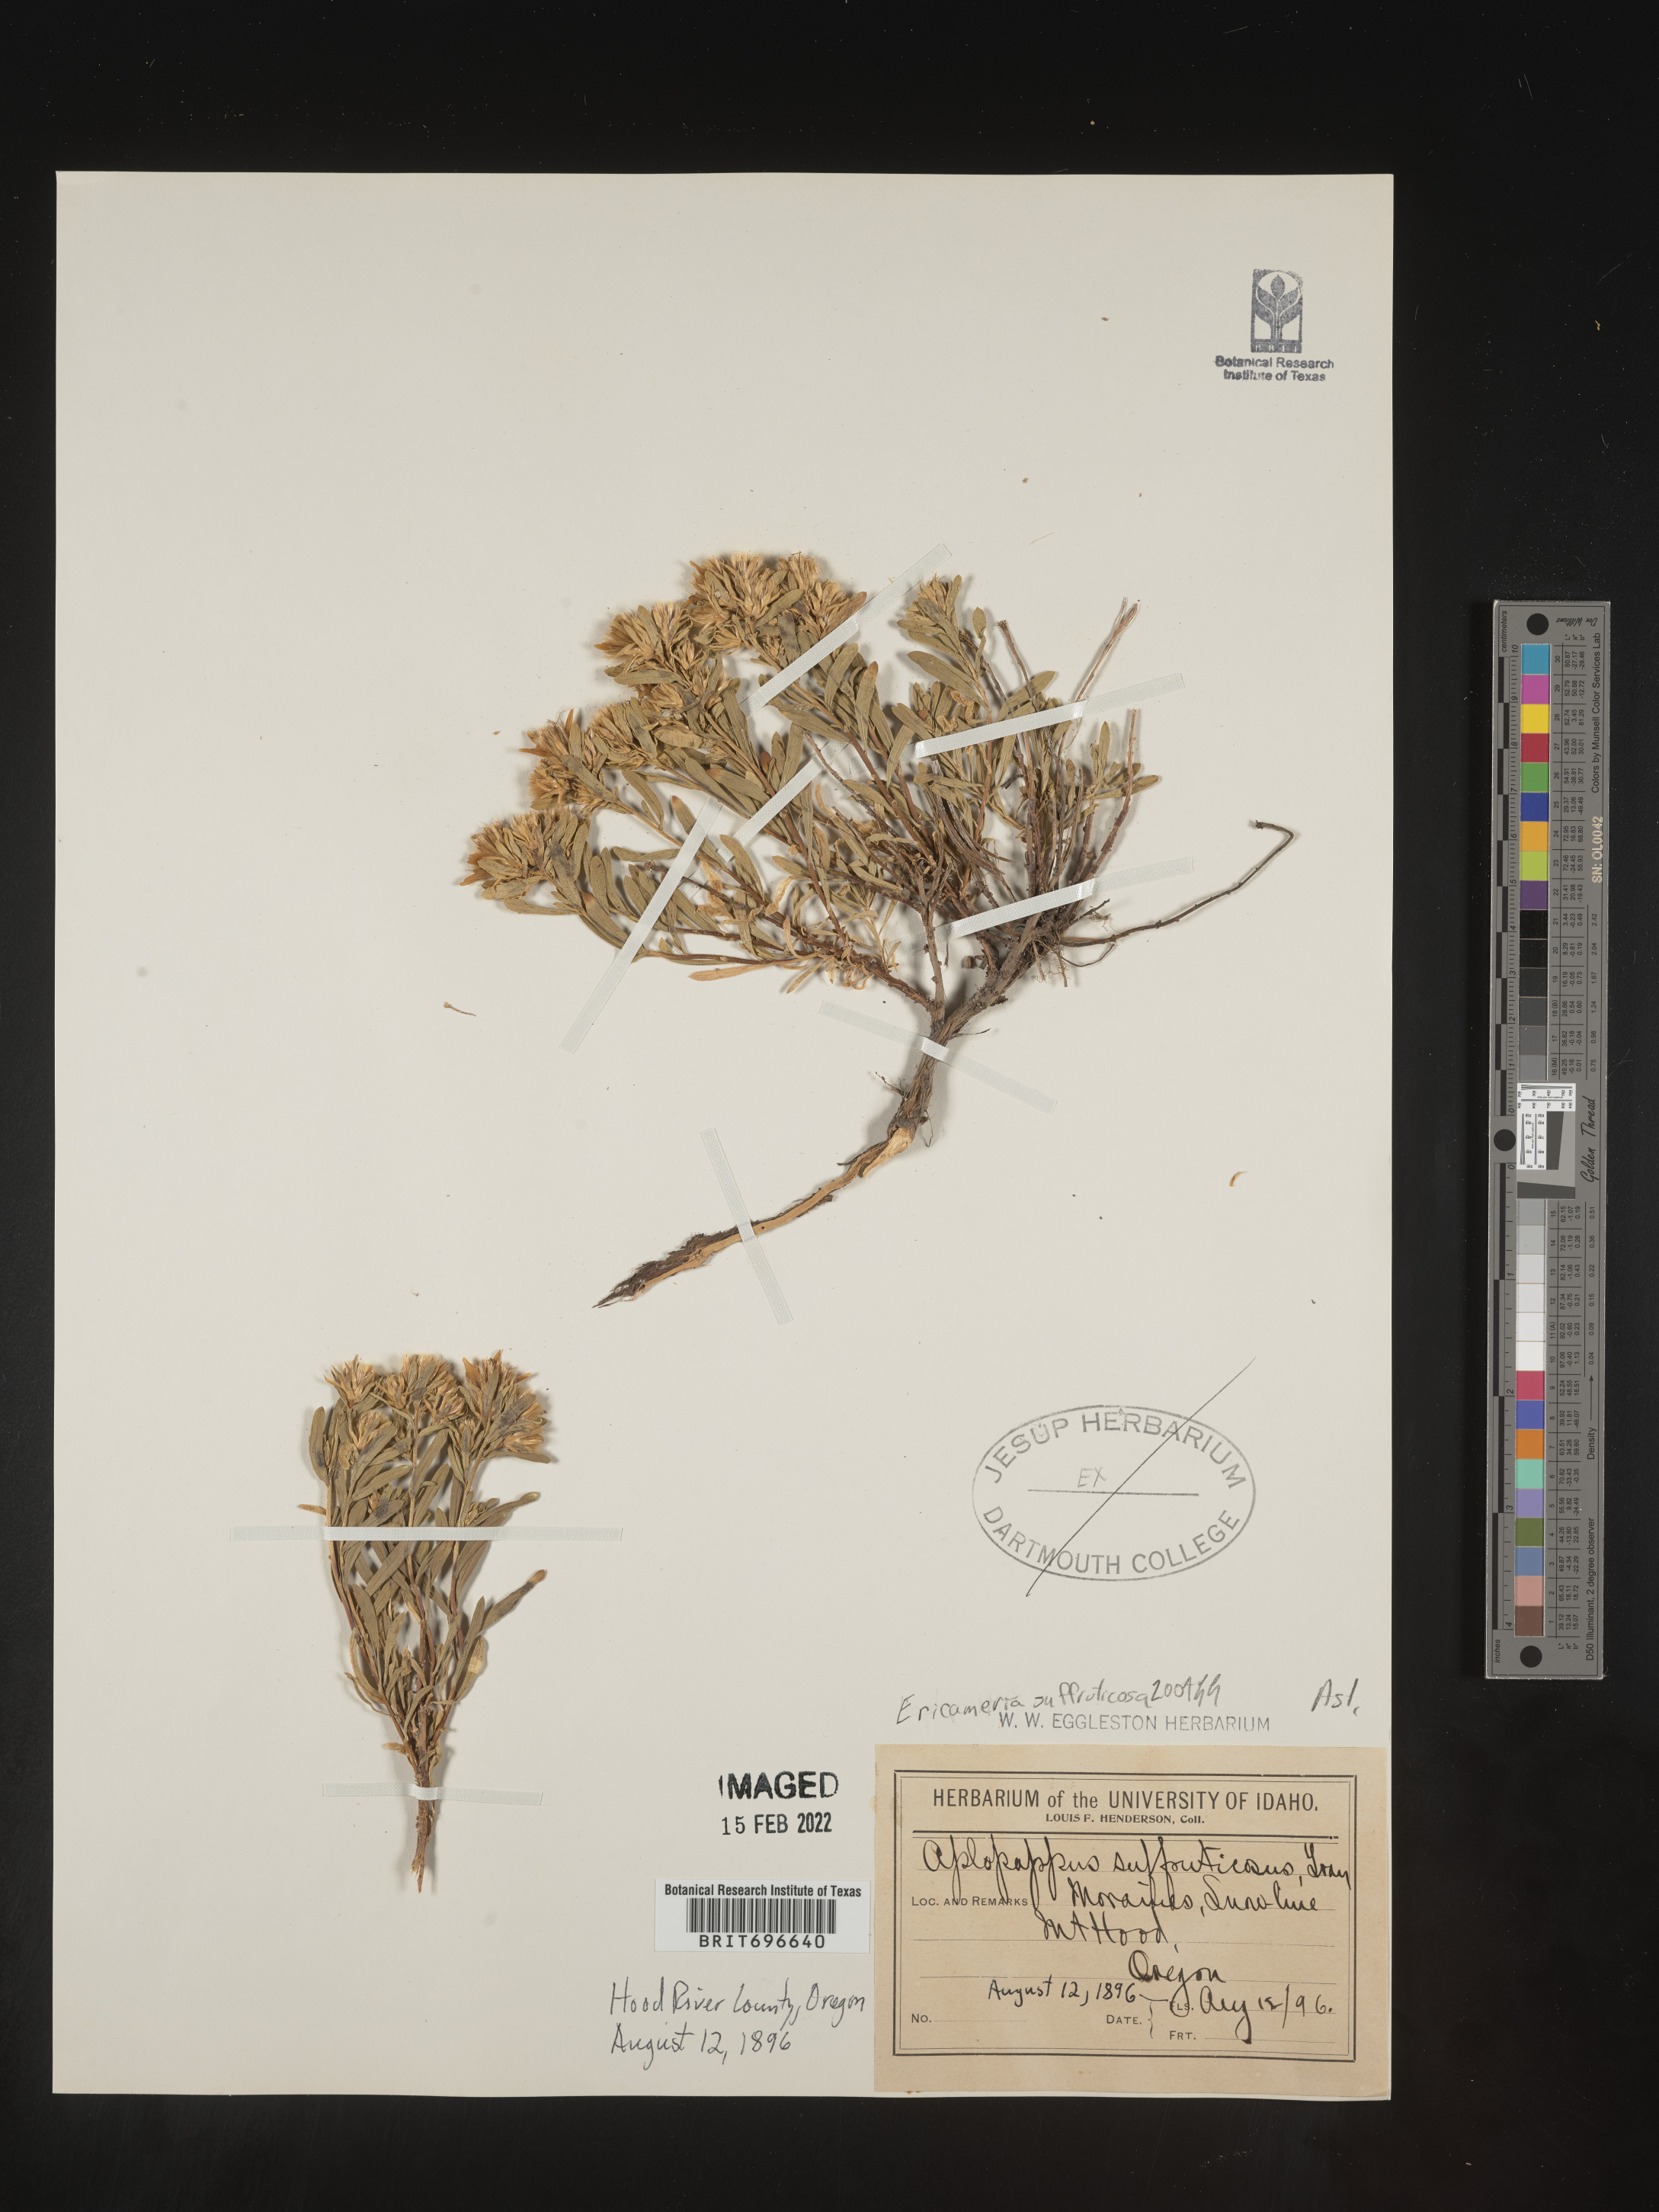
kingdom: Plantae
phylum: Tracheophyta
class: Magnoliopsida
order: Asterales
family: Asteraceae
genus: Ericameria
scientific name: Ericameria suffruticosa
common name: Goldenweed
